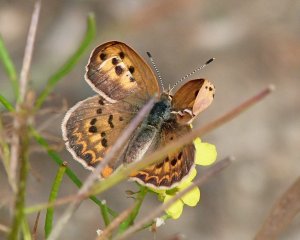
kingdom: Animalia
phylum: Arthropoda
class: Insecta
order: Lepidoptera
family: Sesiidae
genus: Sesia
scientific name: Sesia Lycaena helloides
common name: Purplish Copper
